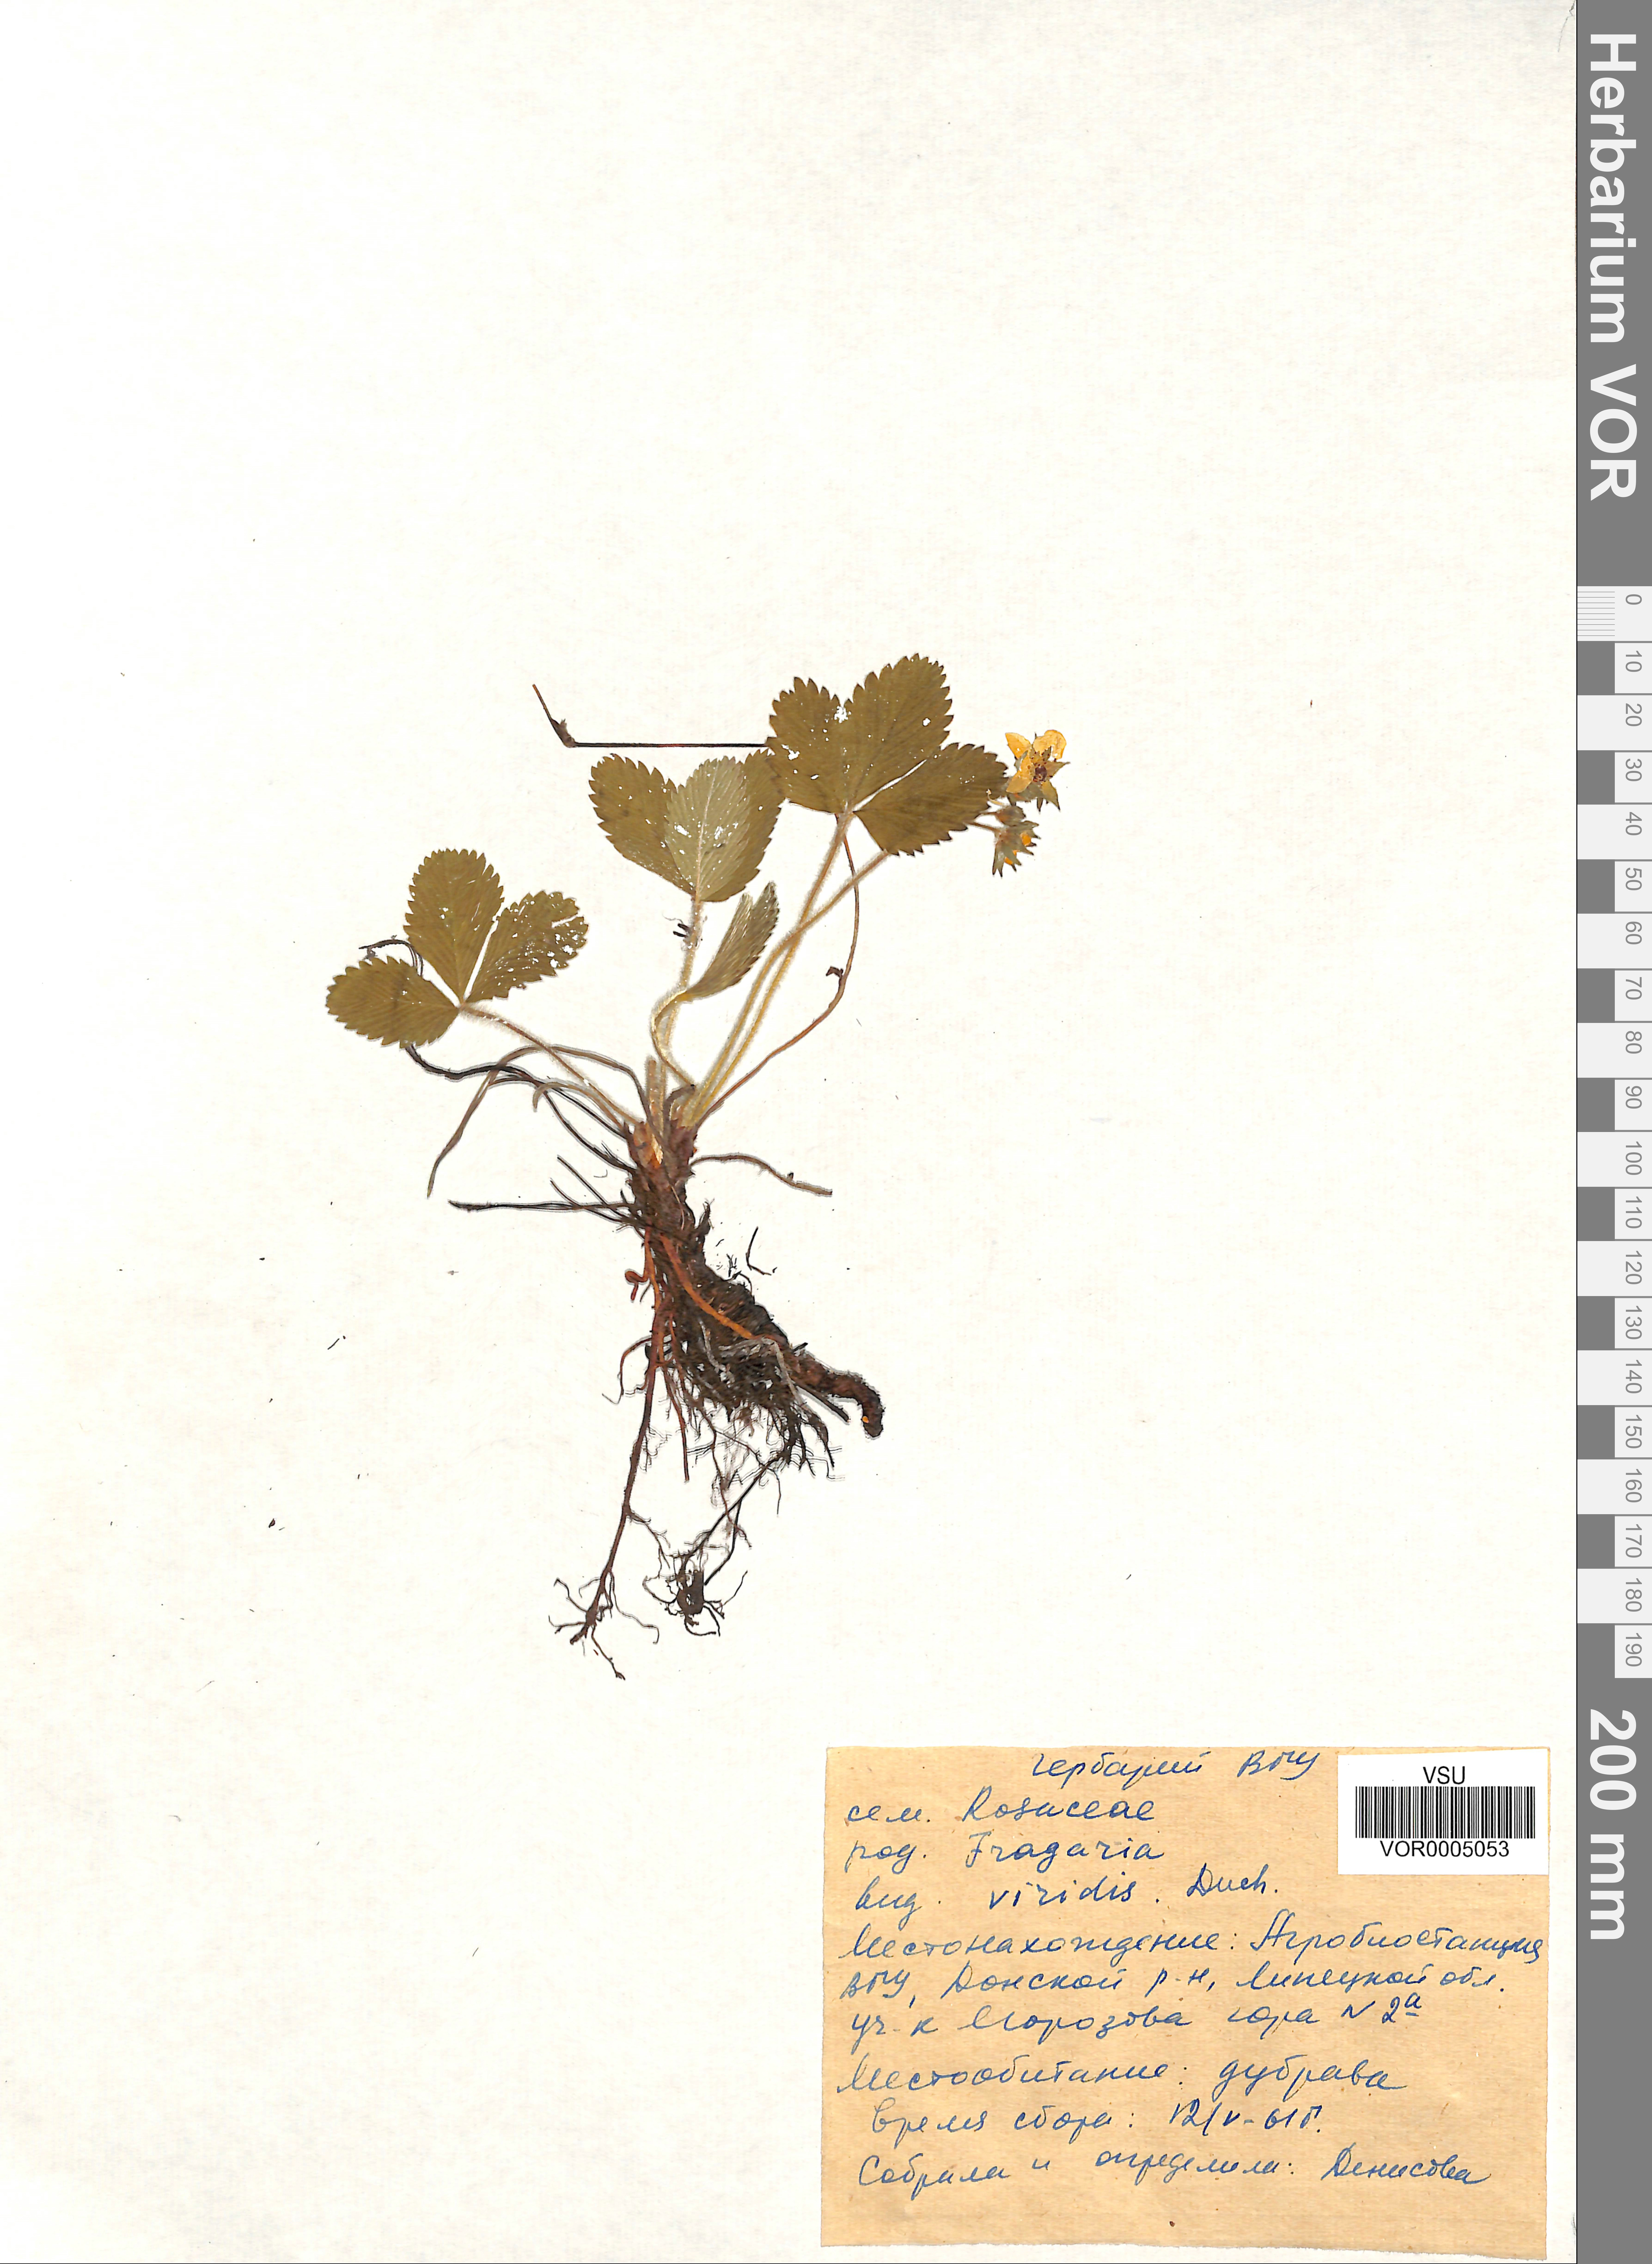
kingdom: Plantae
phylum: Tracheophyta
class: Magnoliopsida
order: Rosales
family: Rosaceae
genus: Fragaria
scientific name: Fragaria viridis
